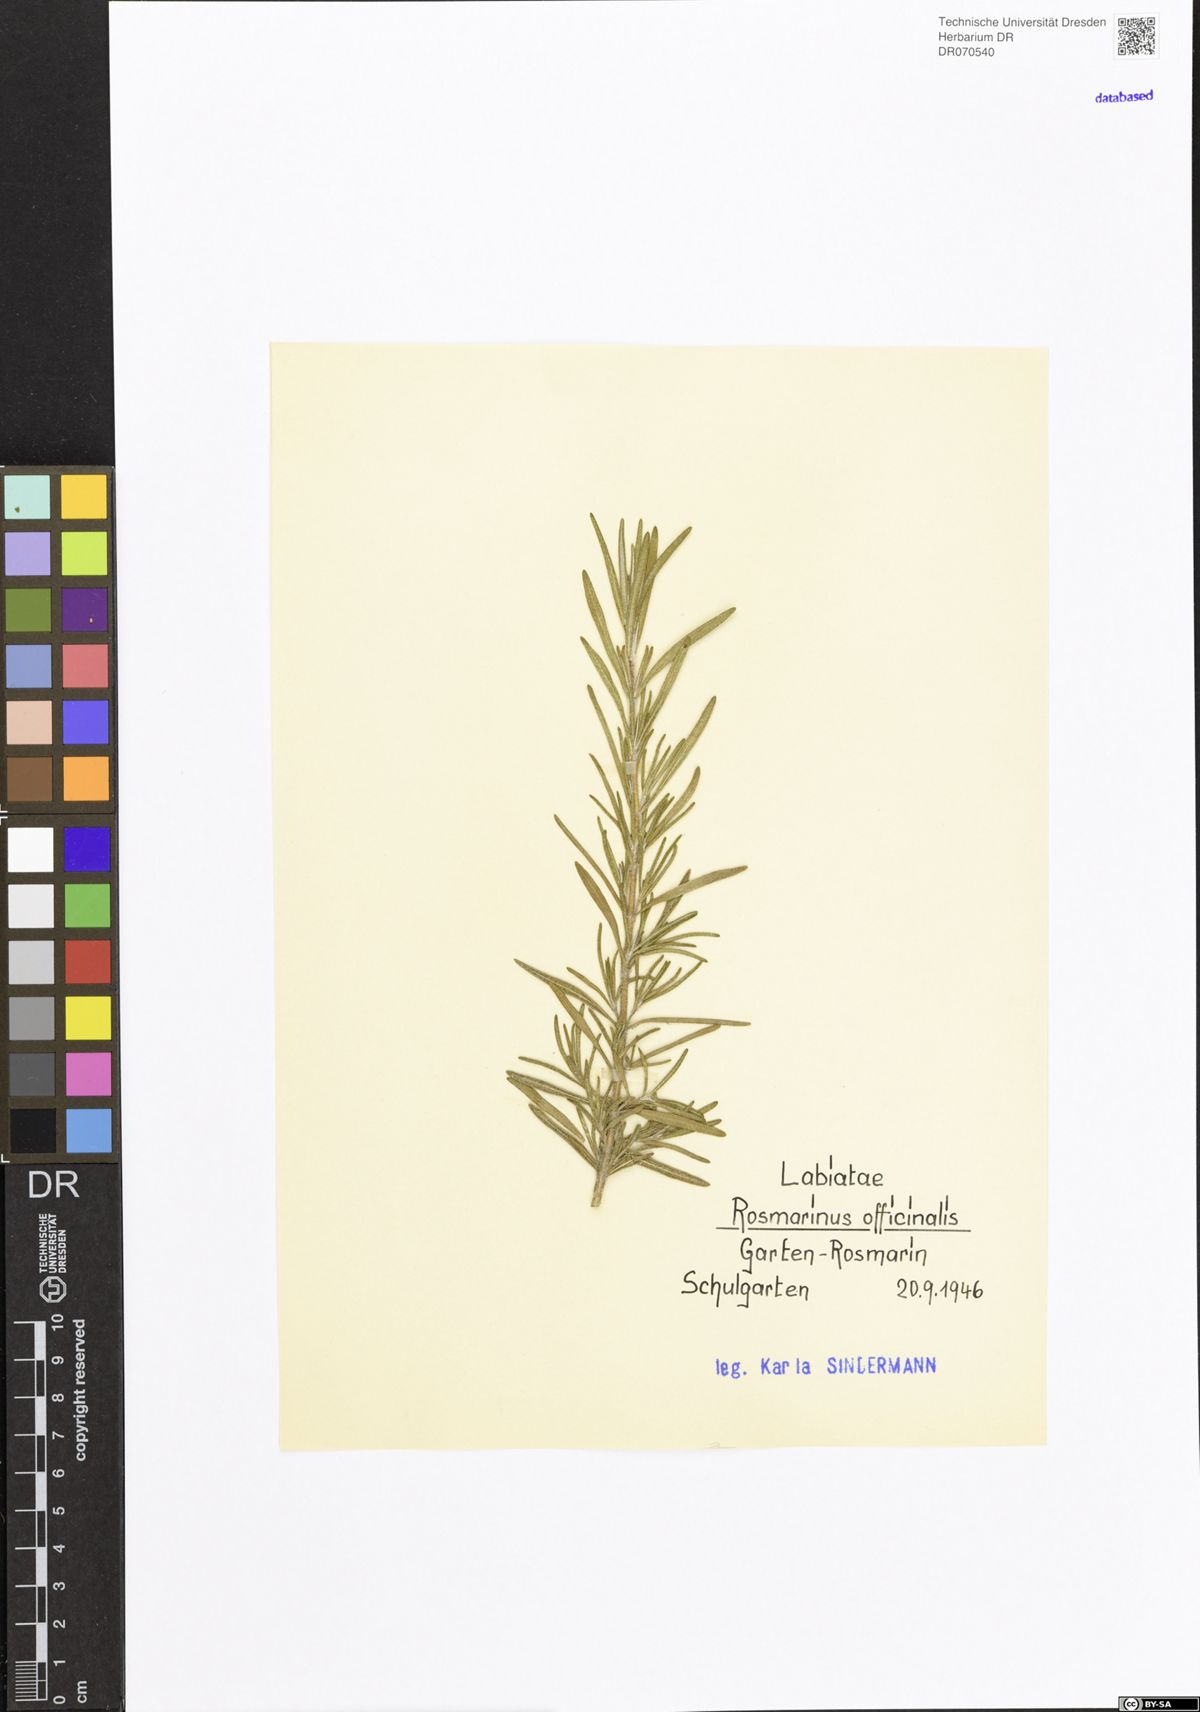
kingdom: Plantae
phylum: Tracheophyta
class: Magnoliopsida
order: Lamiales
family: Lamiaceae
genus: Salvia
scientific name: Salvia rosmarinus
